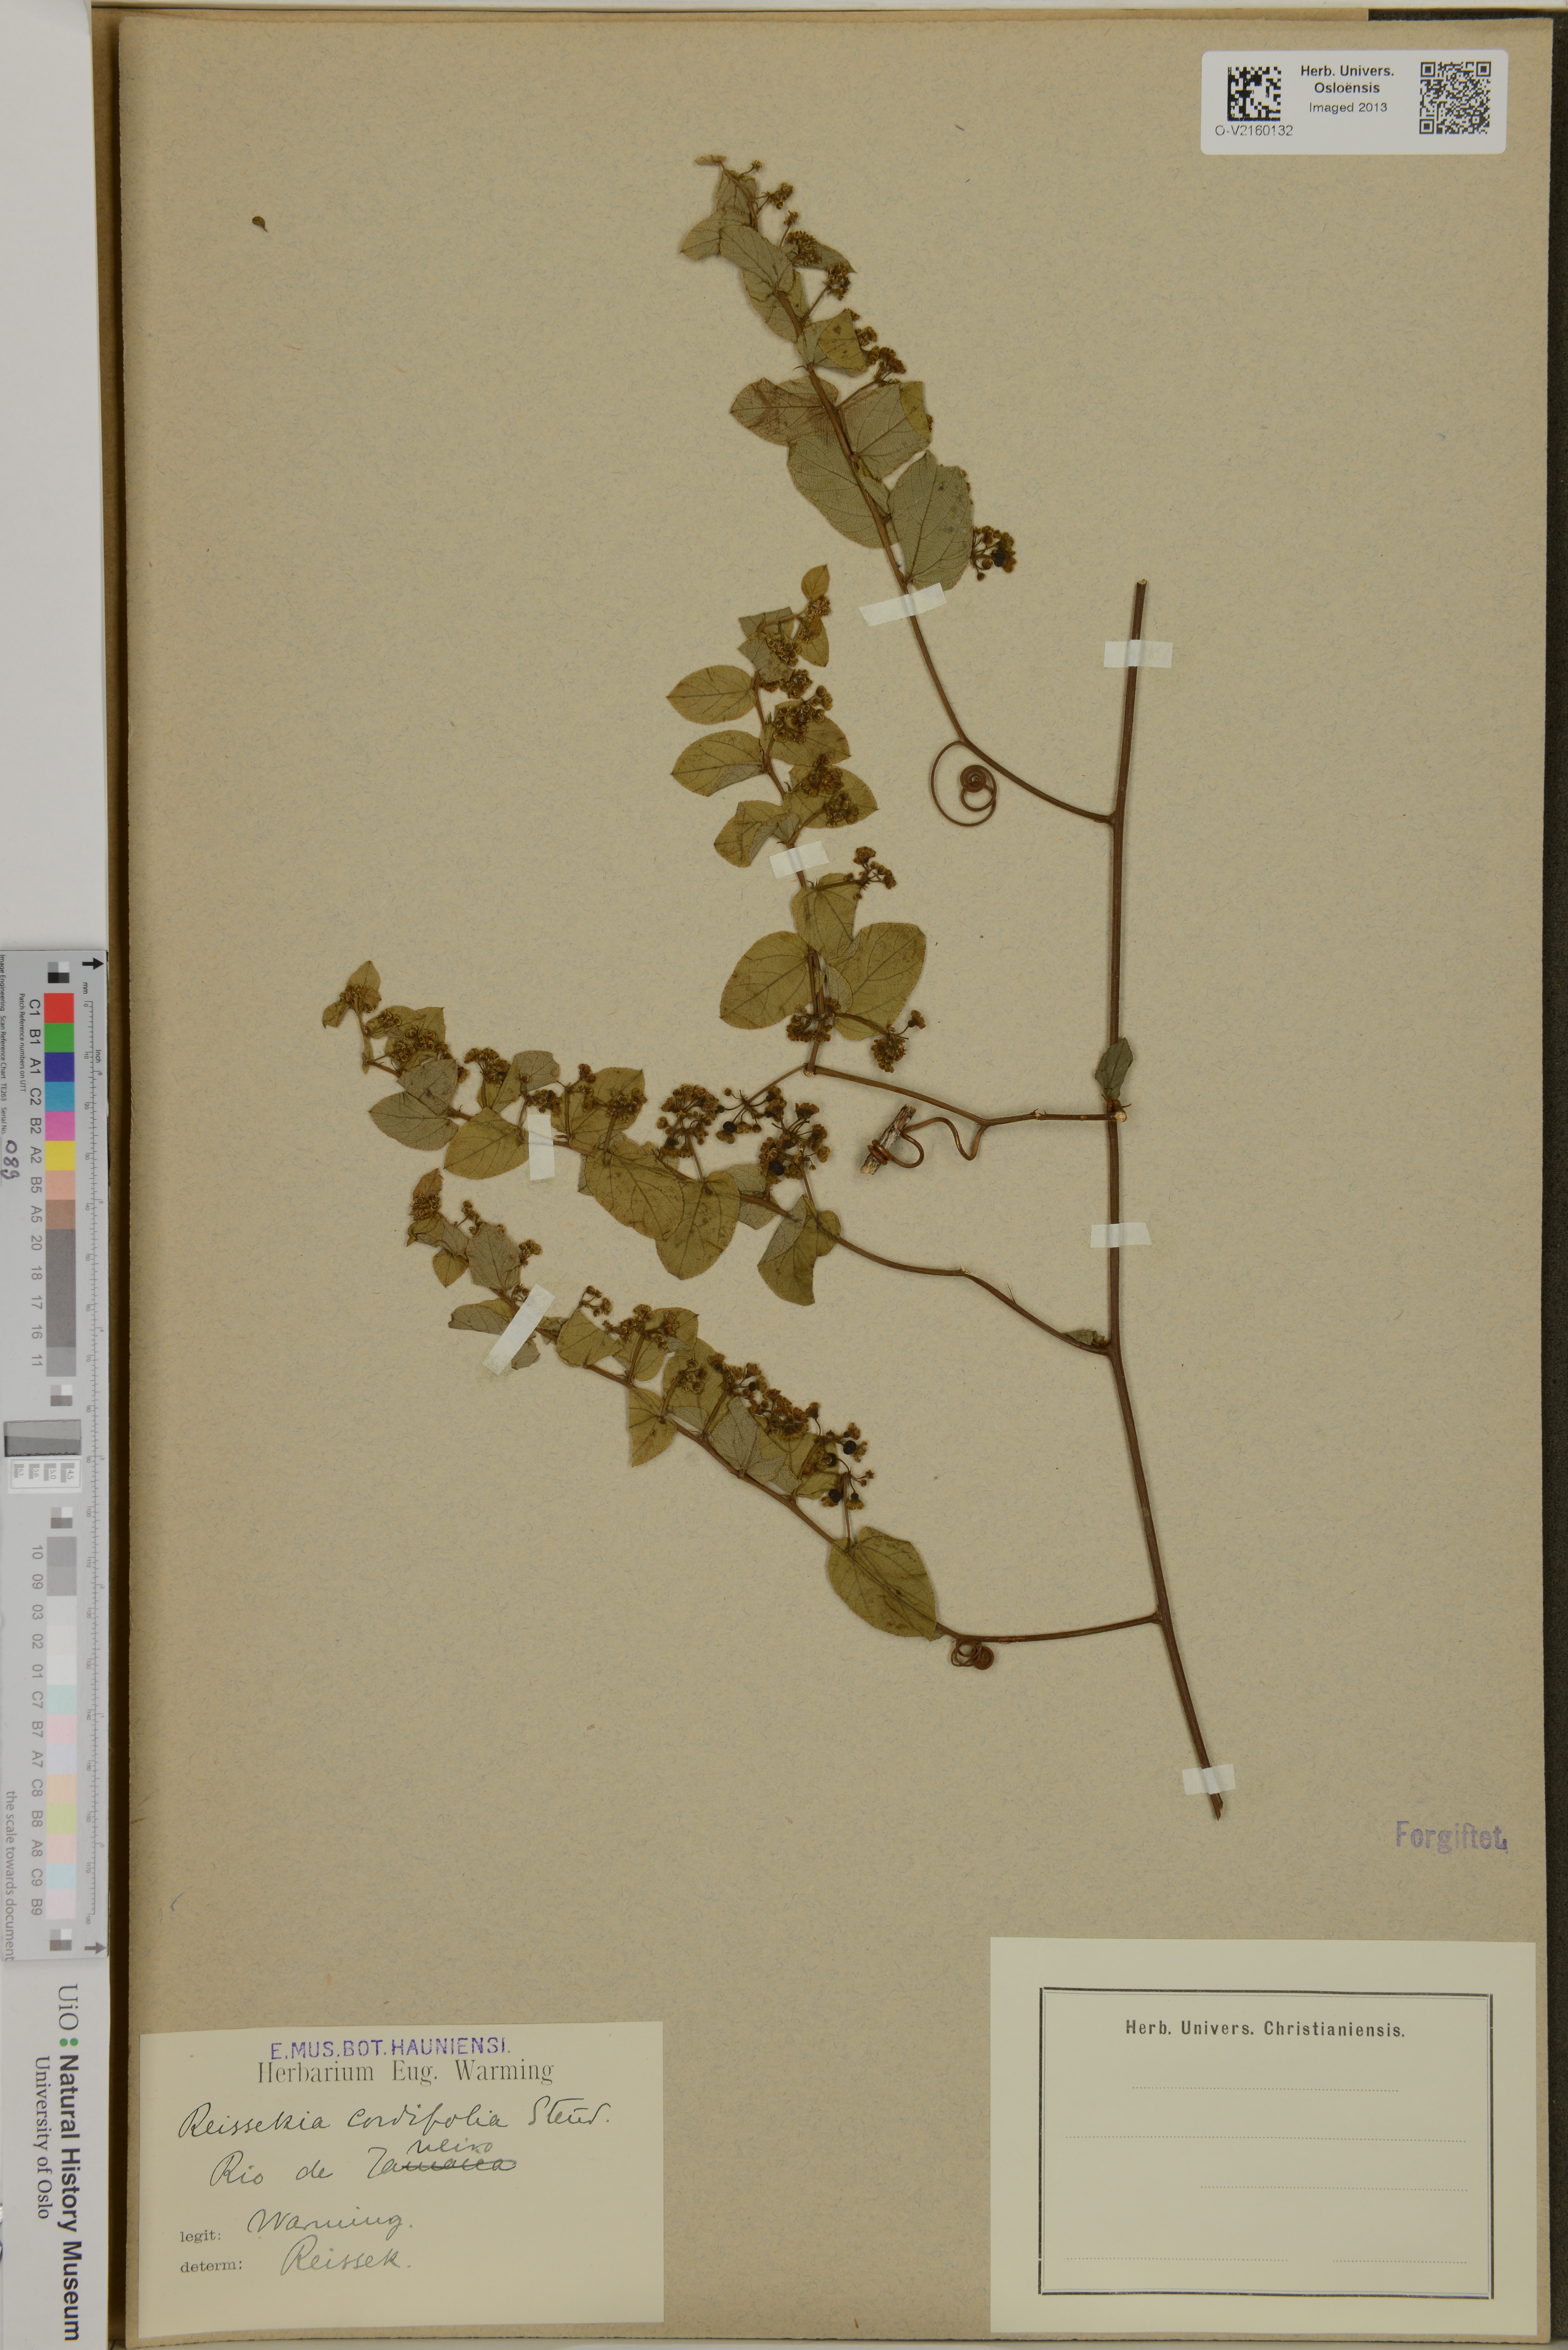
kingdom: Plantae
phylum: Tracheophyta
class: Magnoliopsida
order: Rosales
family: Rhamnaceae
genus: Reissekia
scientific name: Reissekia smilacina
